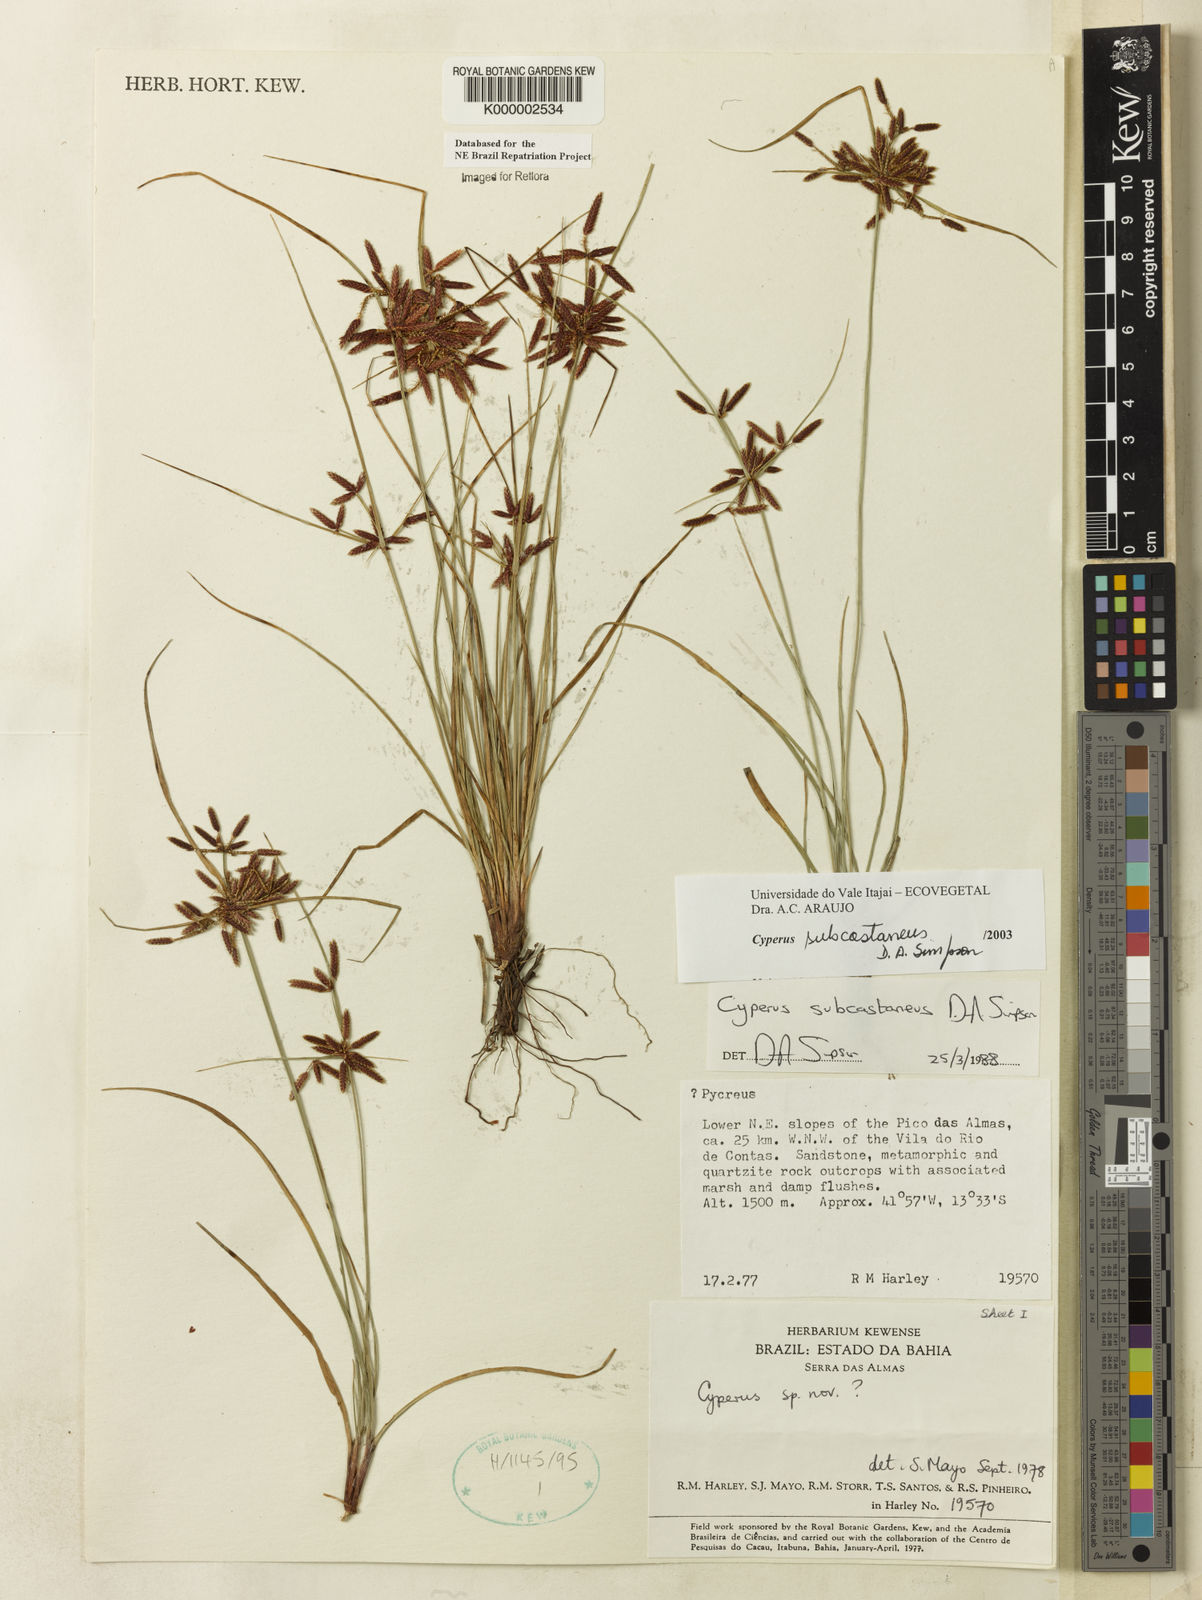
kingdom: Plantae
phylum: Tracheophyta
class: Liliopsida
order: Poales
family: Cyperaceae
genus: Cyperus
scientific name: Cyperus subcastaneus
